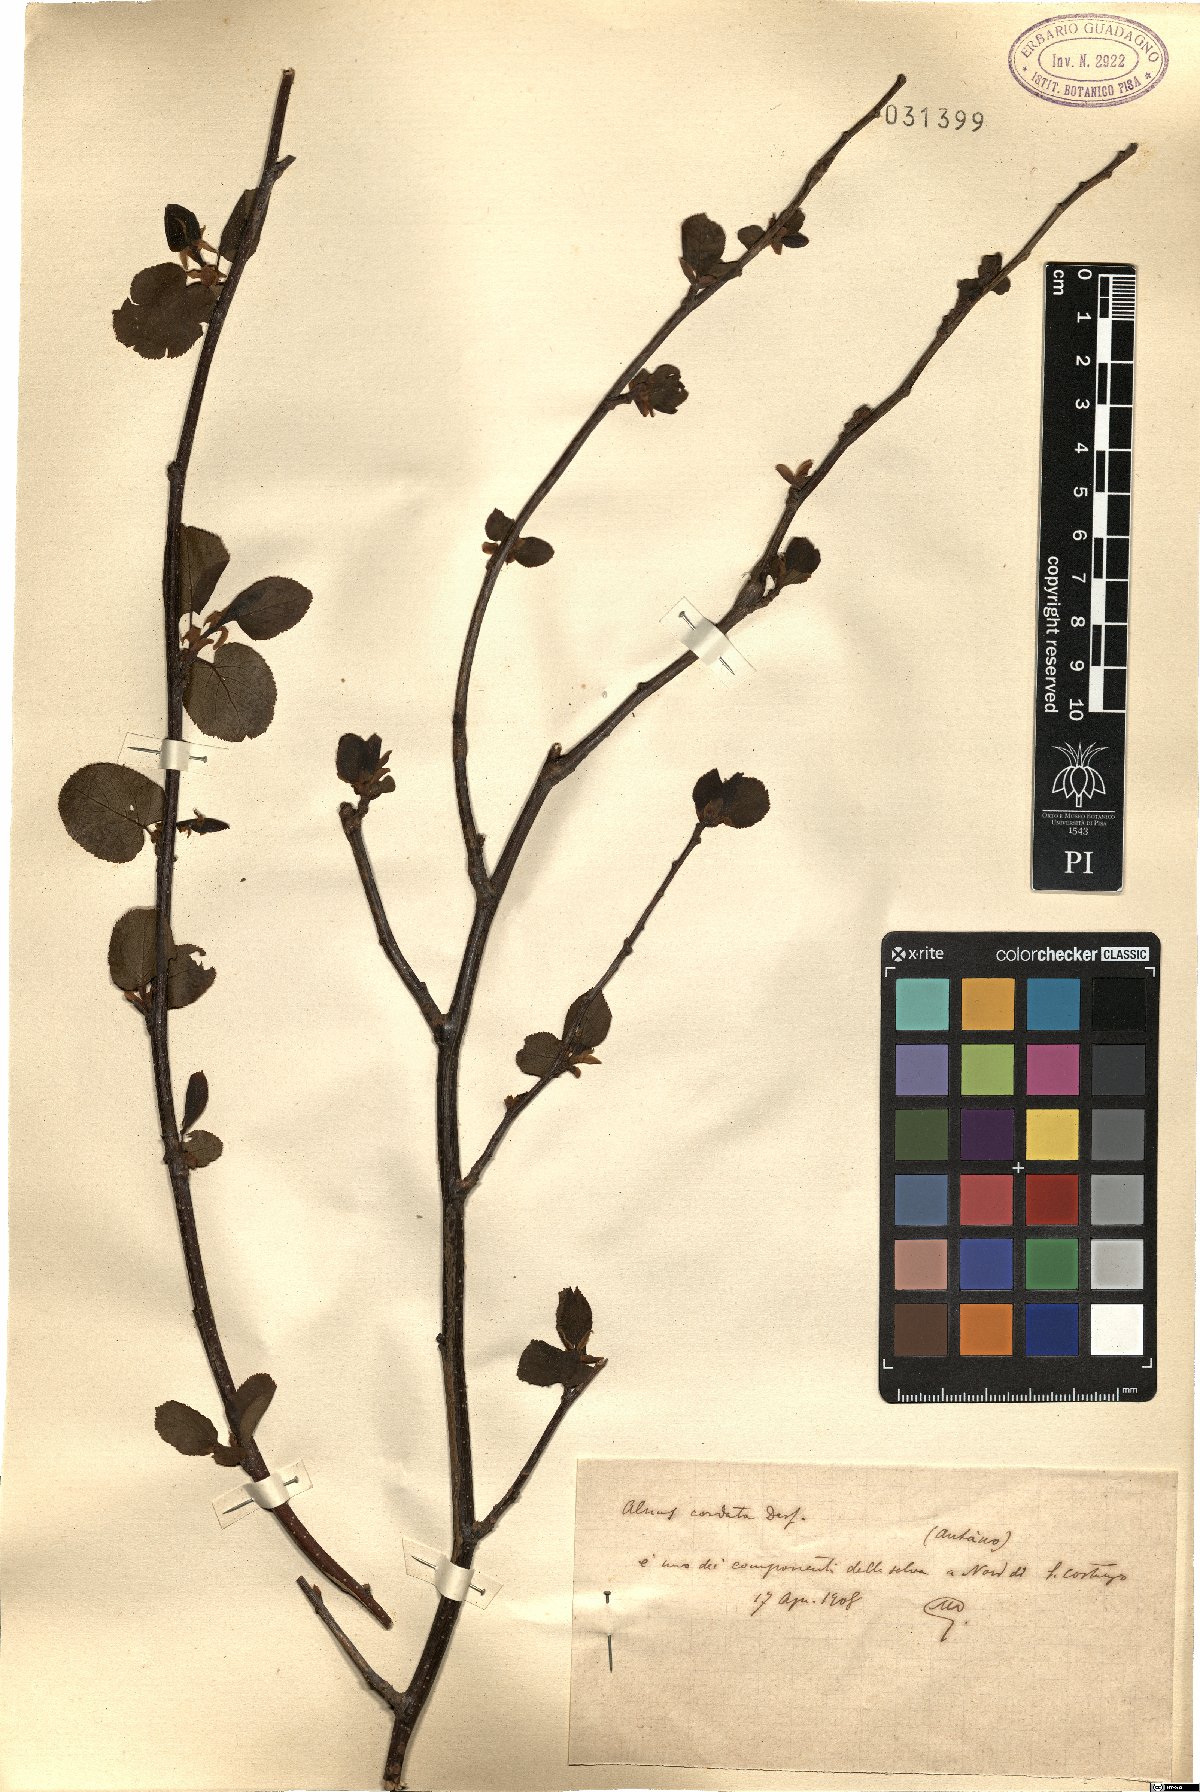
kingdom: Plantae
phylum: Tracheophyta
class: Magnoliopsida
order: Fagales
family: Betulaceae
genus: Alnus
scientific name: Alnus cordata
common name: Italian alder
